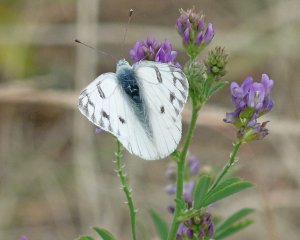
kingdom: Animalia
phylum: Arthropoda
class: Insecta
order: Lepidoptera
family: Pieridae
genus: Pontia
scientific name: Pontia occidentalis
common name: Western White
